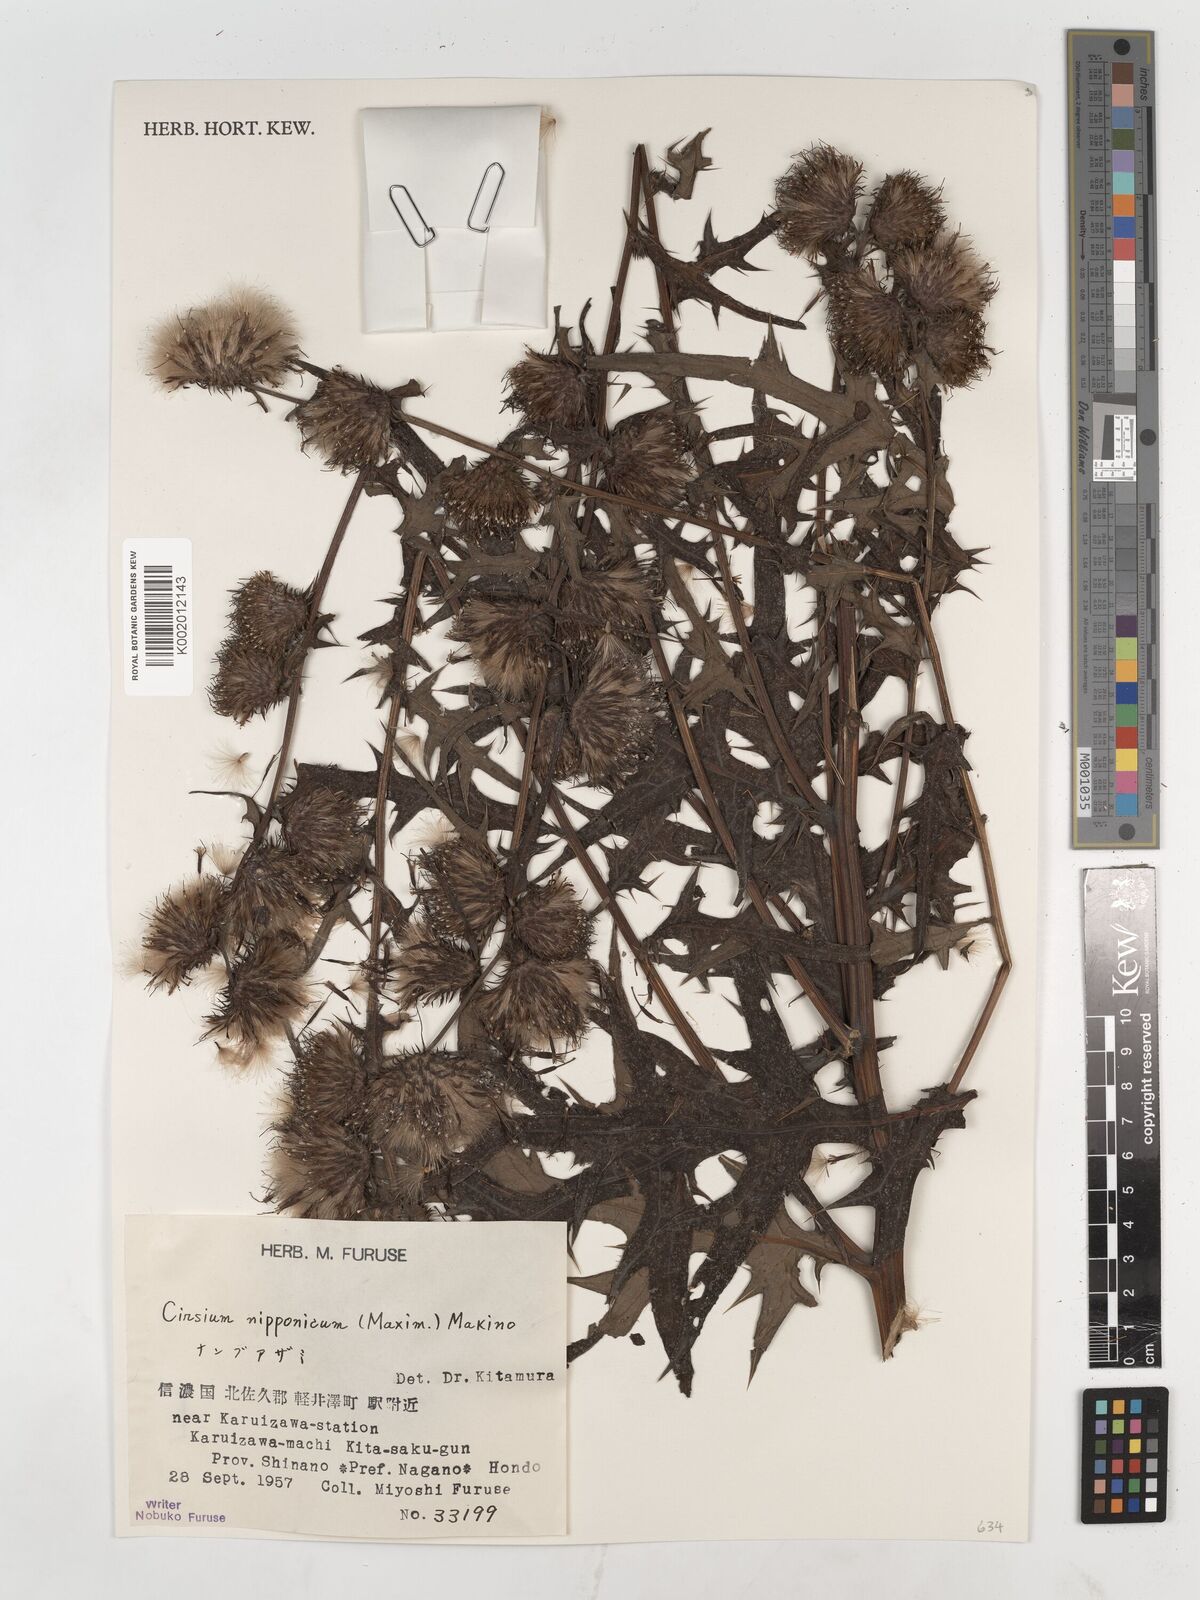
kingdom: Plantae
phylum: Tracheophyta
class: Magnoliopsida
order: Asterales
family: Asteraceae
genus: Cirsium
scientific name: Cirsium nipponicum
